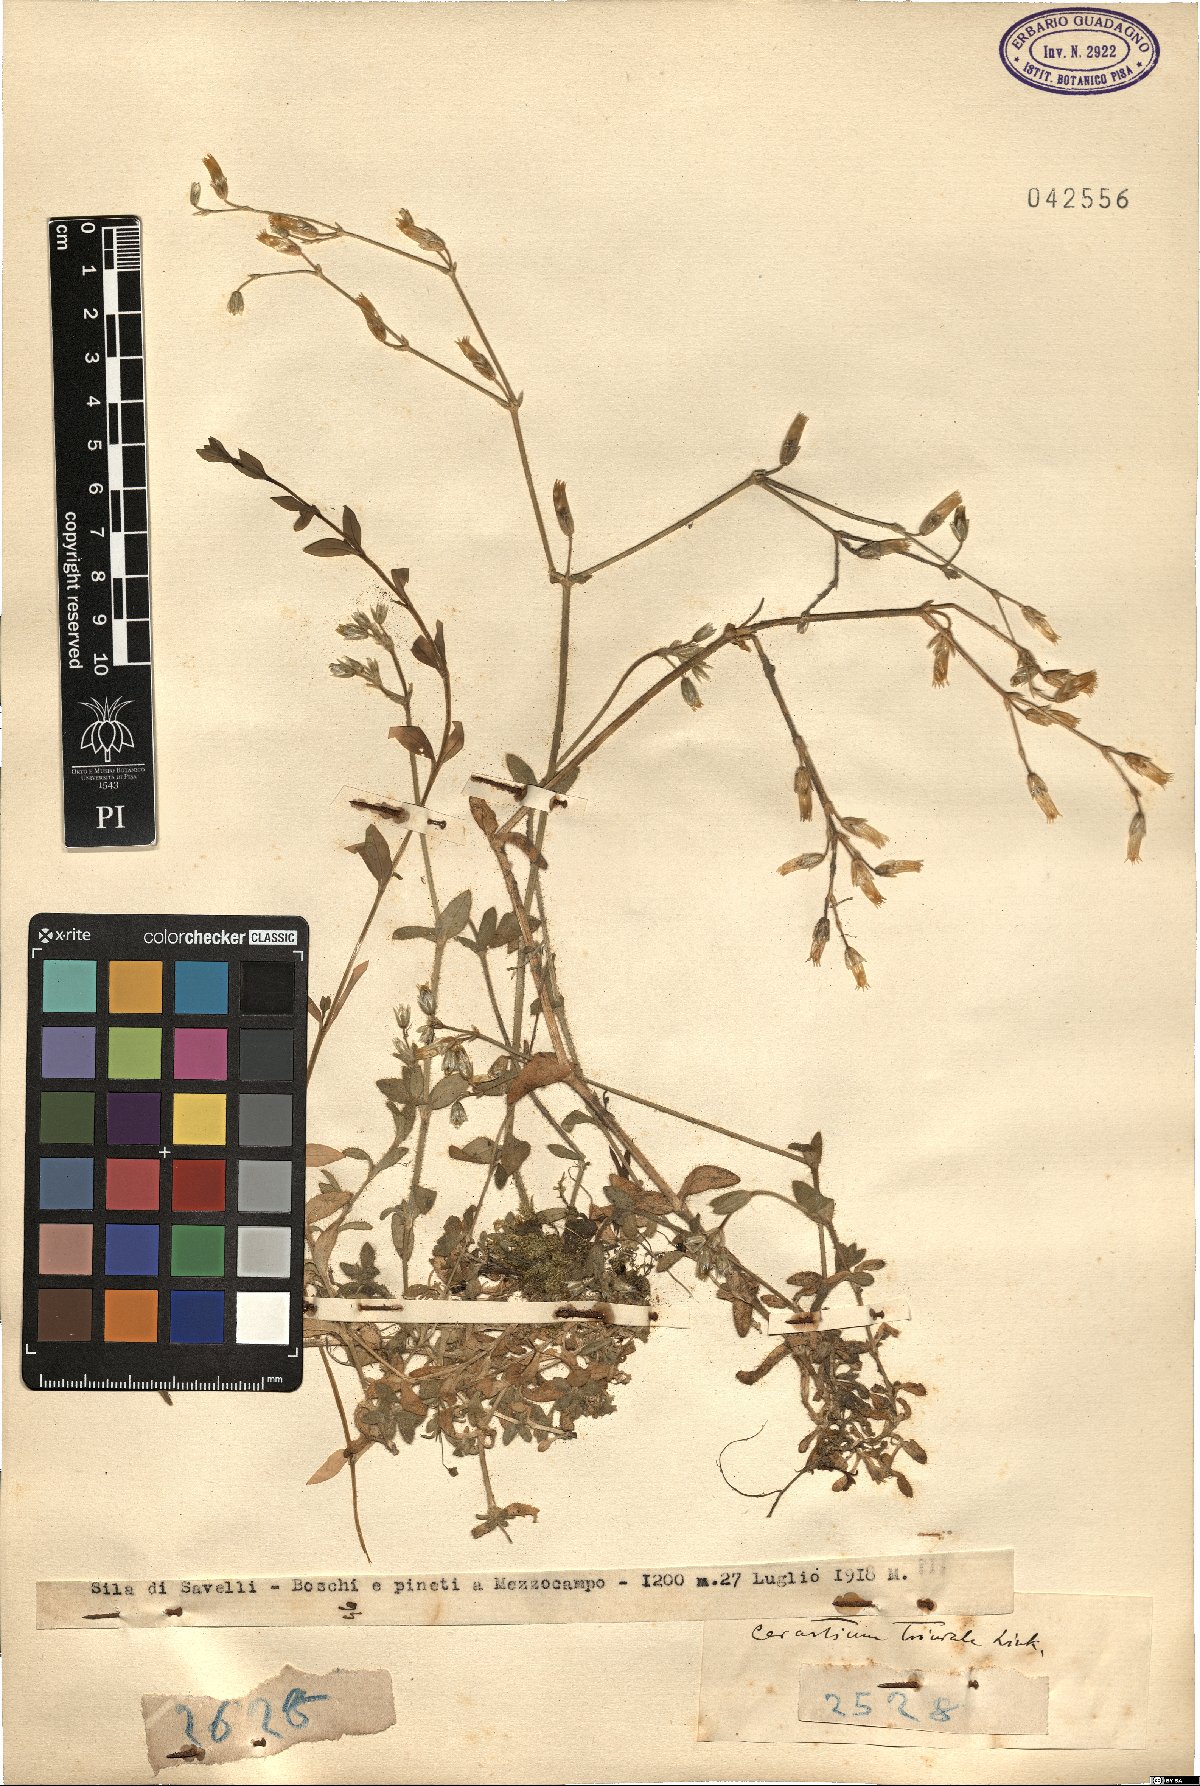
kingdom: Plantae
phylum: Tracheophyta
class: Magnoliopsida
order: Caryophyllales
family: Caryophyllaceae
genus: Cerastium
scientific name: Cerastium glomeratum
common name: Sticky chickweed
